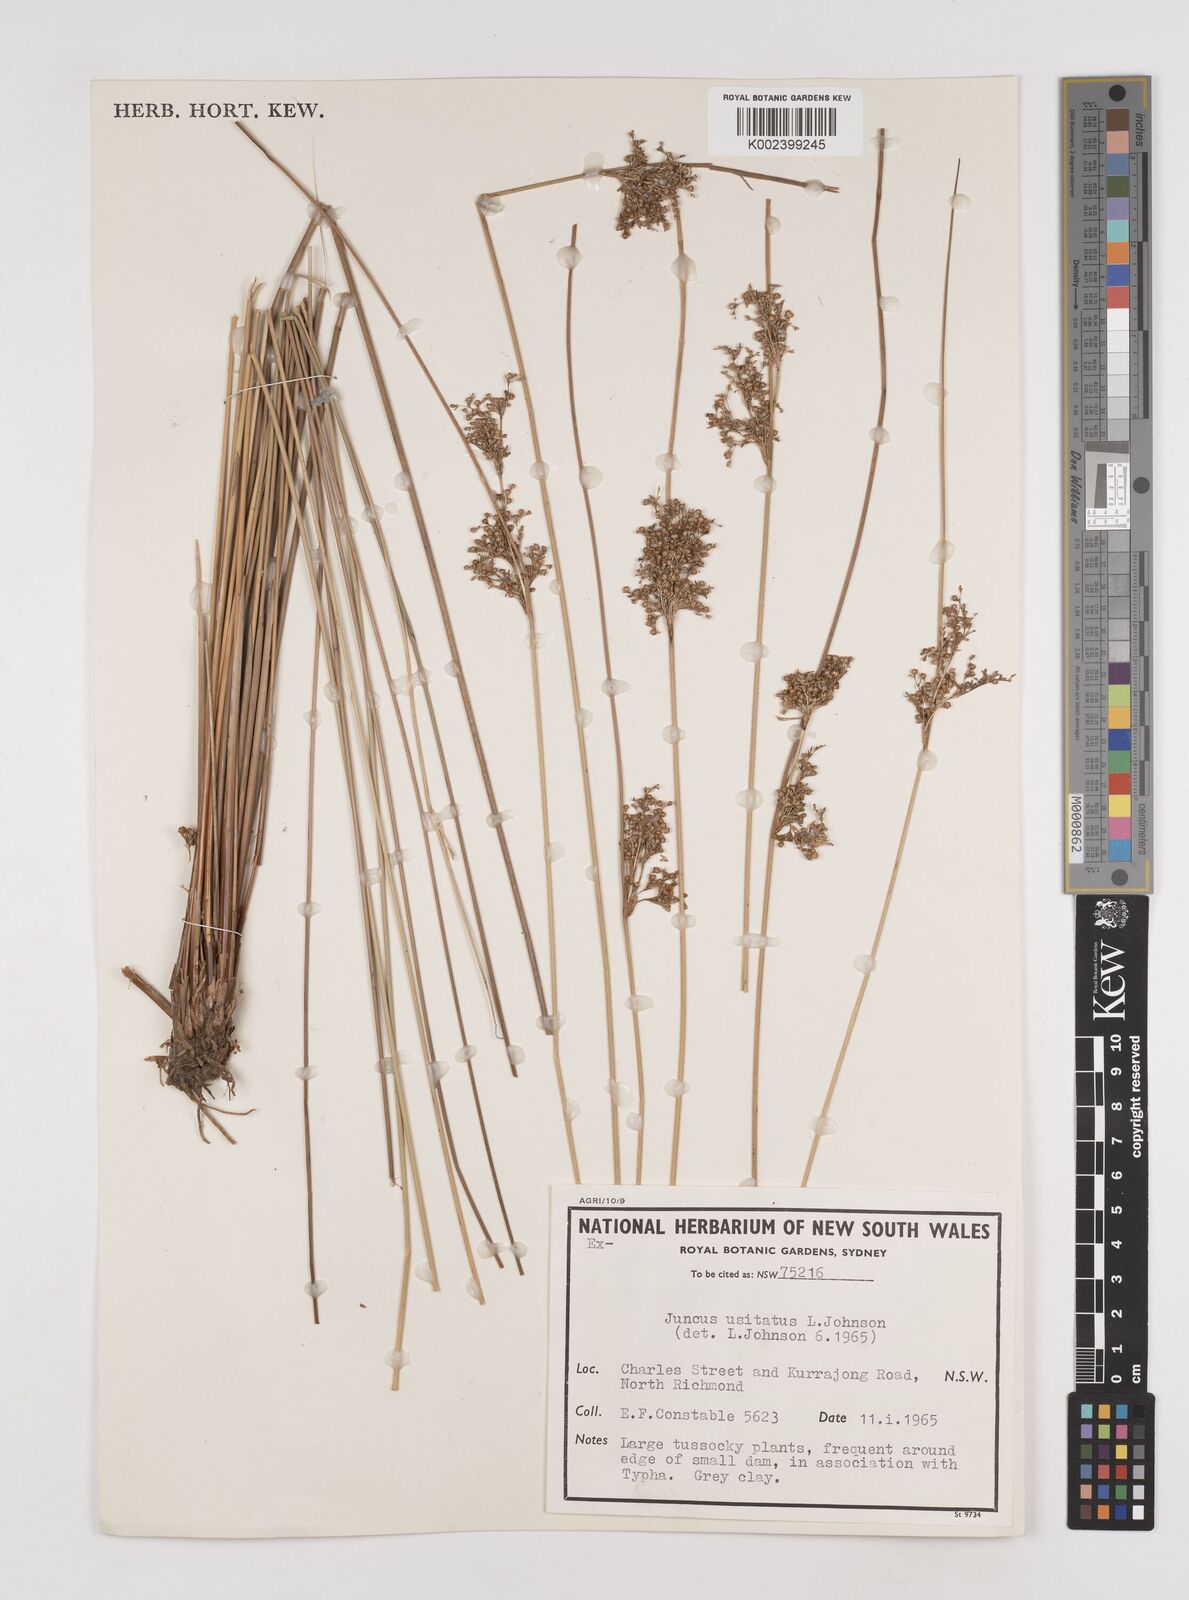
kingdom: Plantae
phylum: Tracheophyta
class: Liliopsida
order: Poales
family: Juncaceae
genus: Juncus
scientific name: Juncus usitatus
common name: Rush
